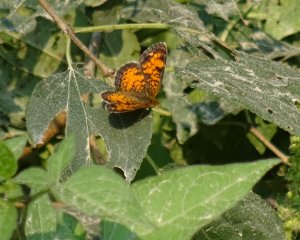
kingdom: Animalia
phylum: Arthropoda
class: Insecta
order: Lepidoptera
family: Nymphalidae
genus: Phyciodes
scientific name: Phyciodes tharos
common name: Pearl Crescent
